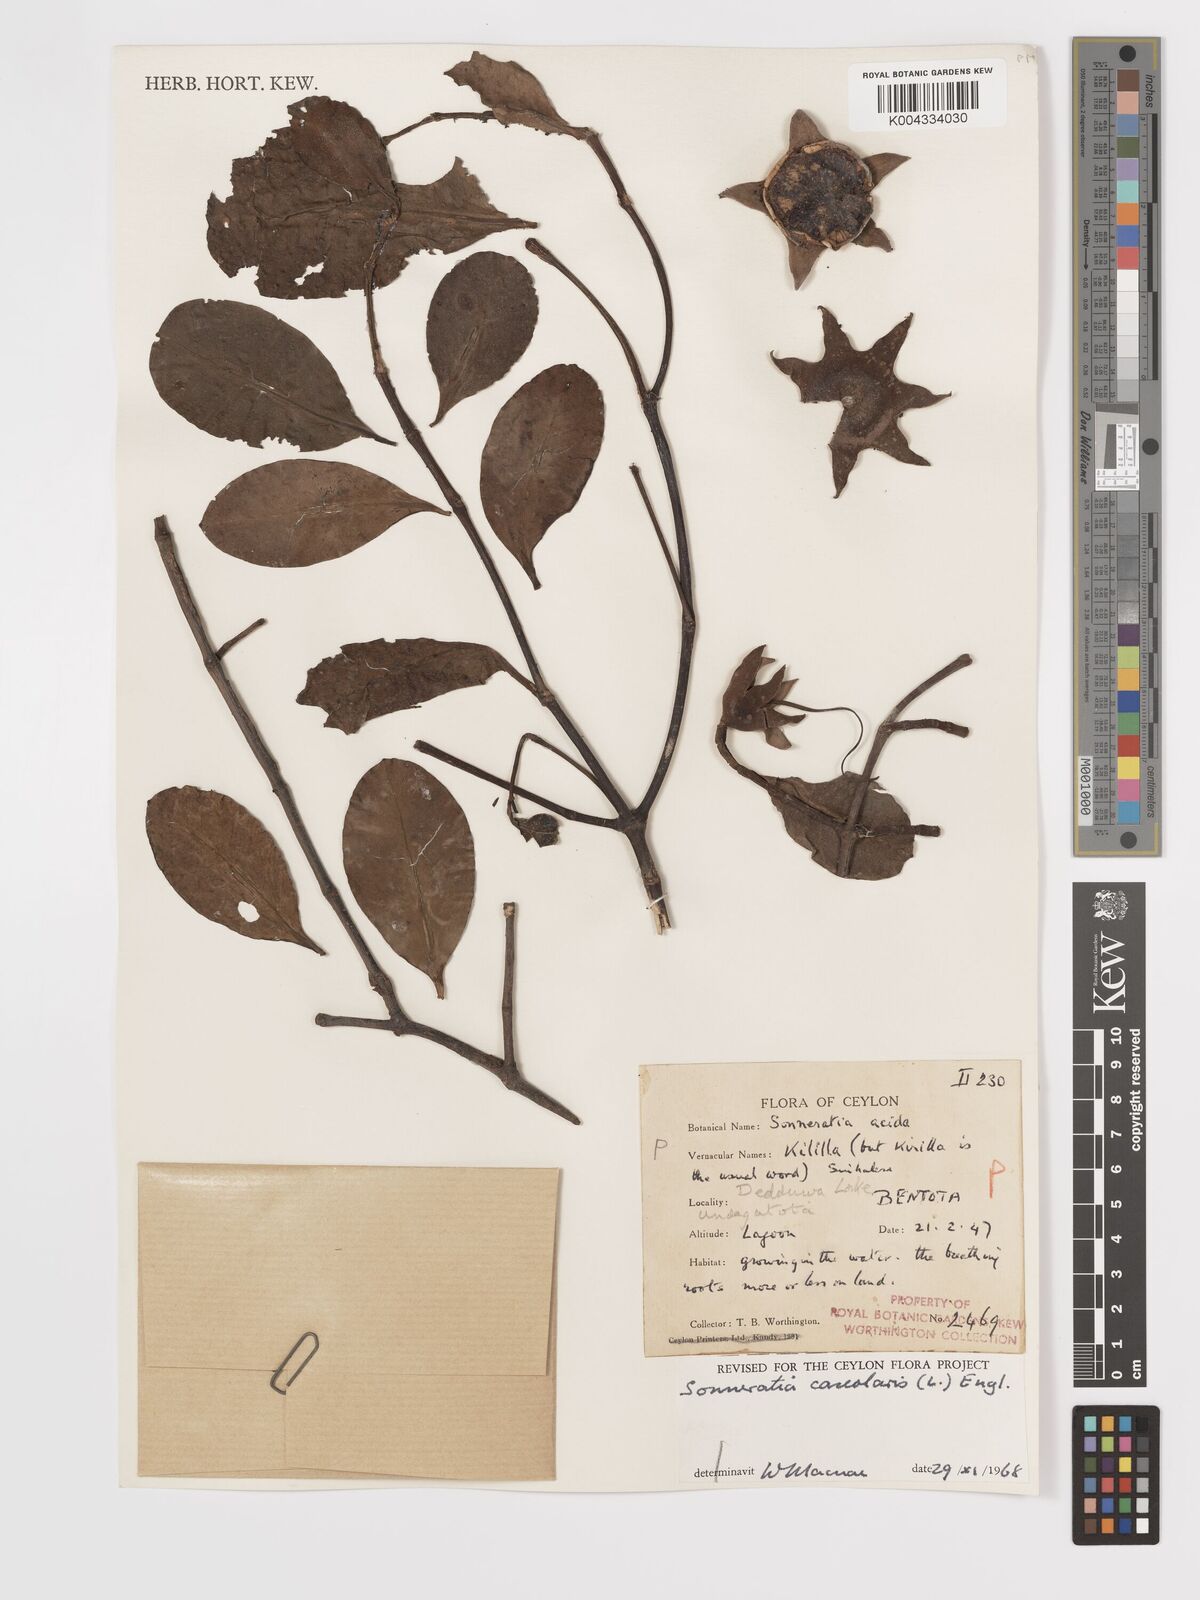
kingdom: Plantae
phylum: Tracheophyta
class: Magnoliopsida
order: Myrtales
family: Lythraceae
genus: Sonneratia
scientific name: Sonneratia caseolaris
